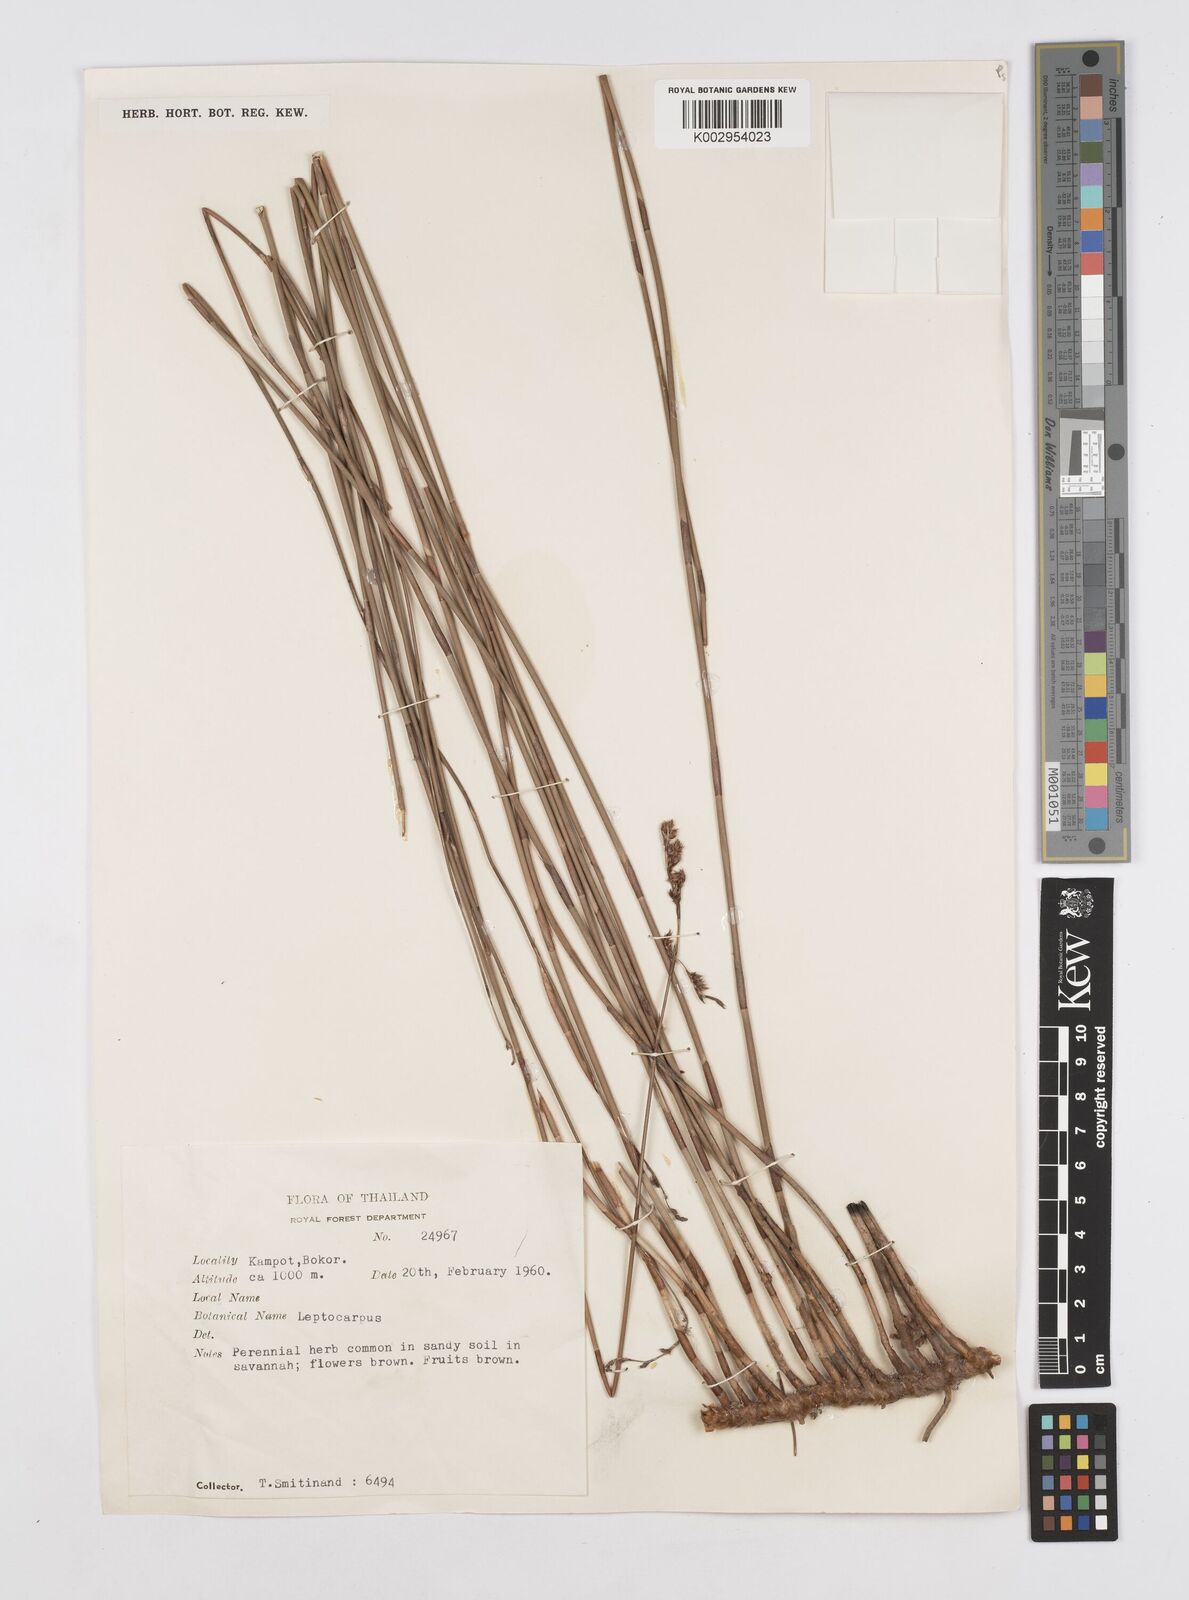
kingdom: Plantae
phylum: Tracheophyta
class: Liliopsida
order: Poales
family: Restionaceae
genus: Dapsilanthus
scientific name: Dapsilanthus disjunctus
